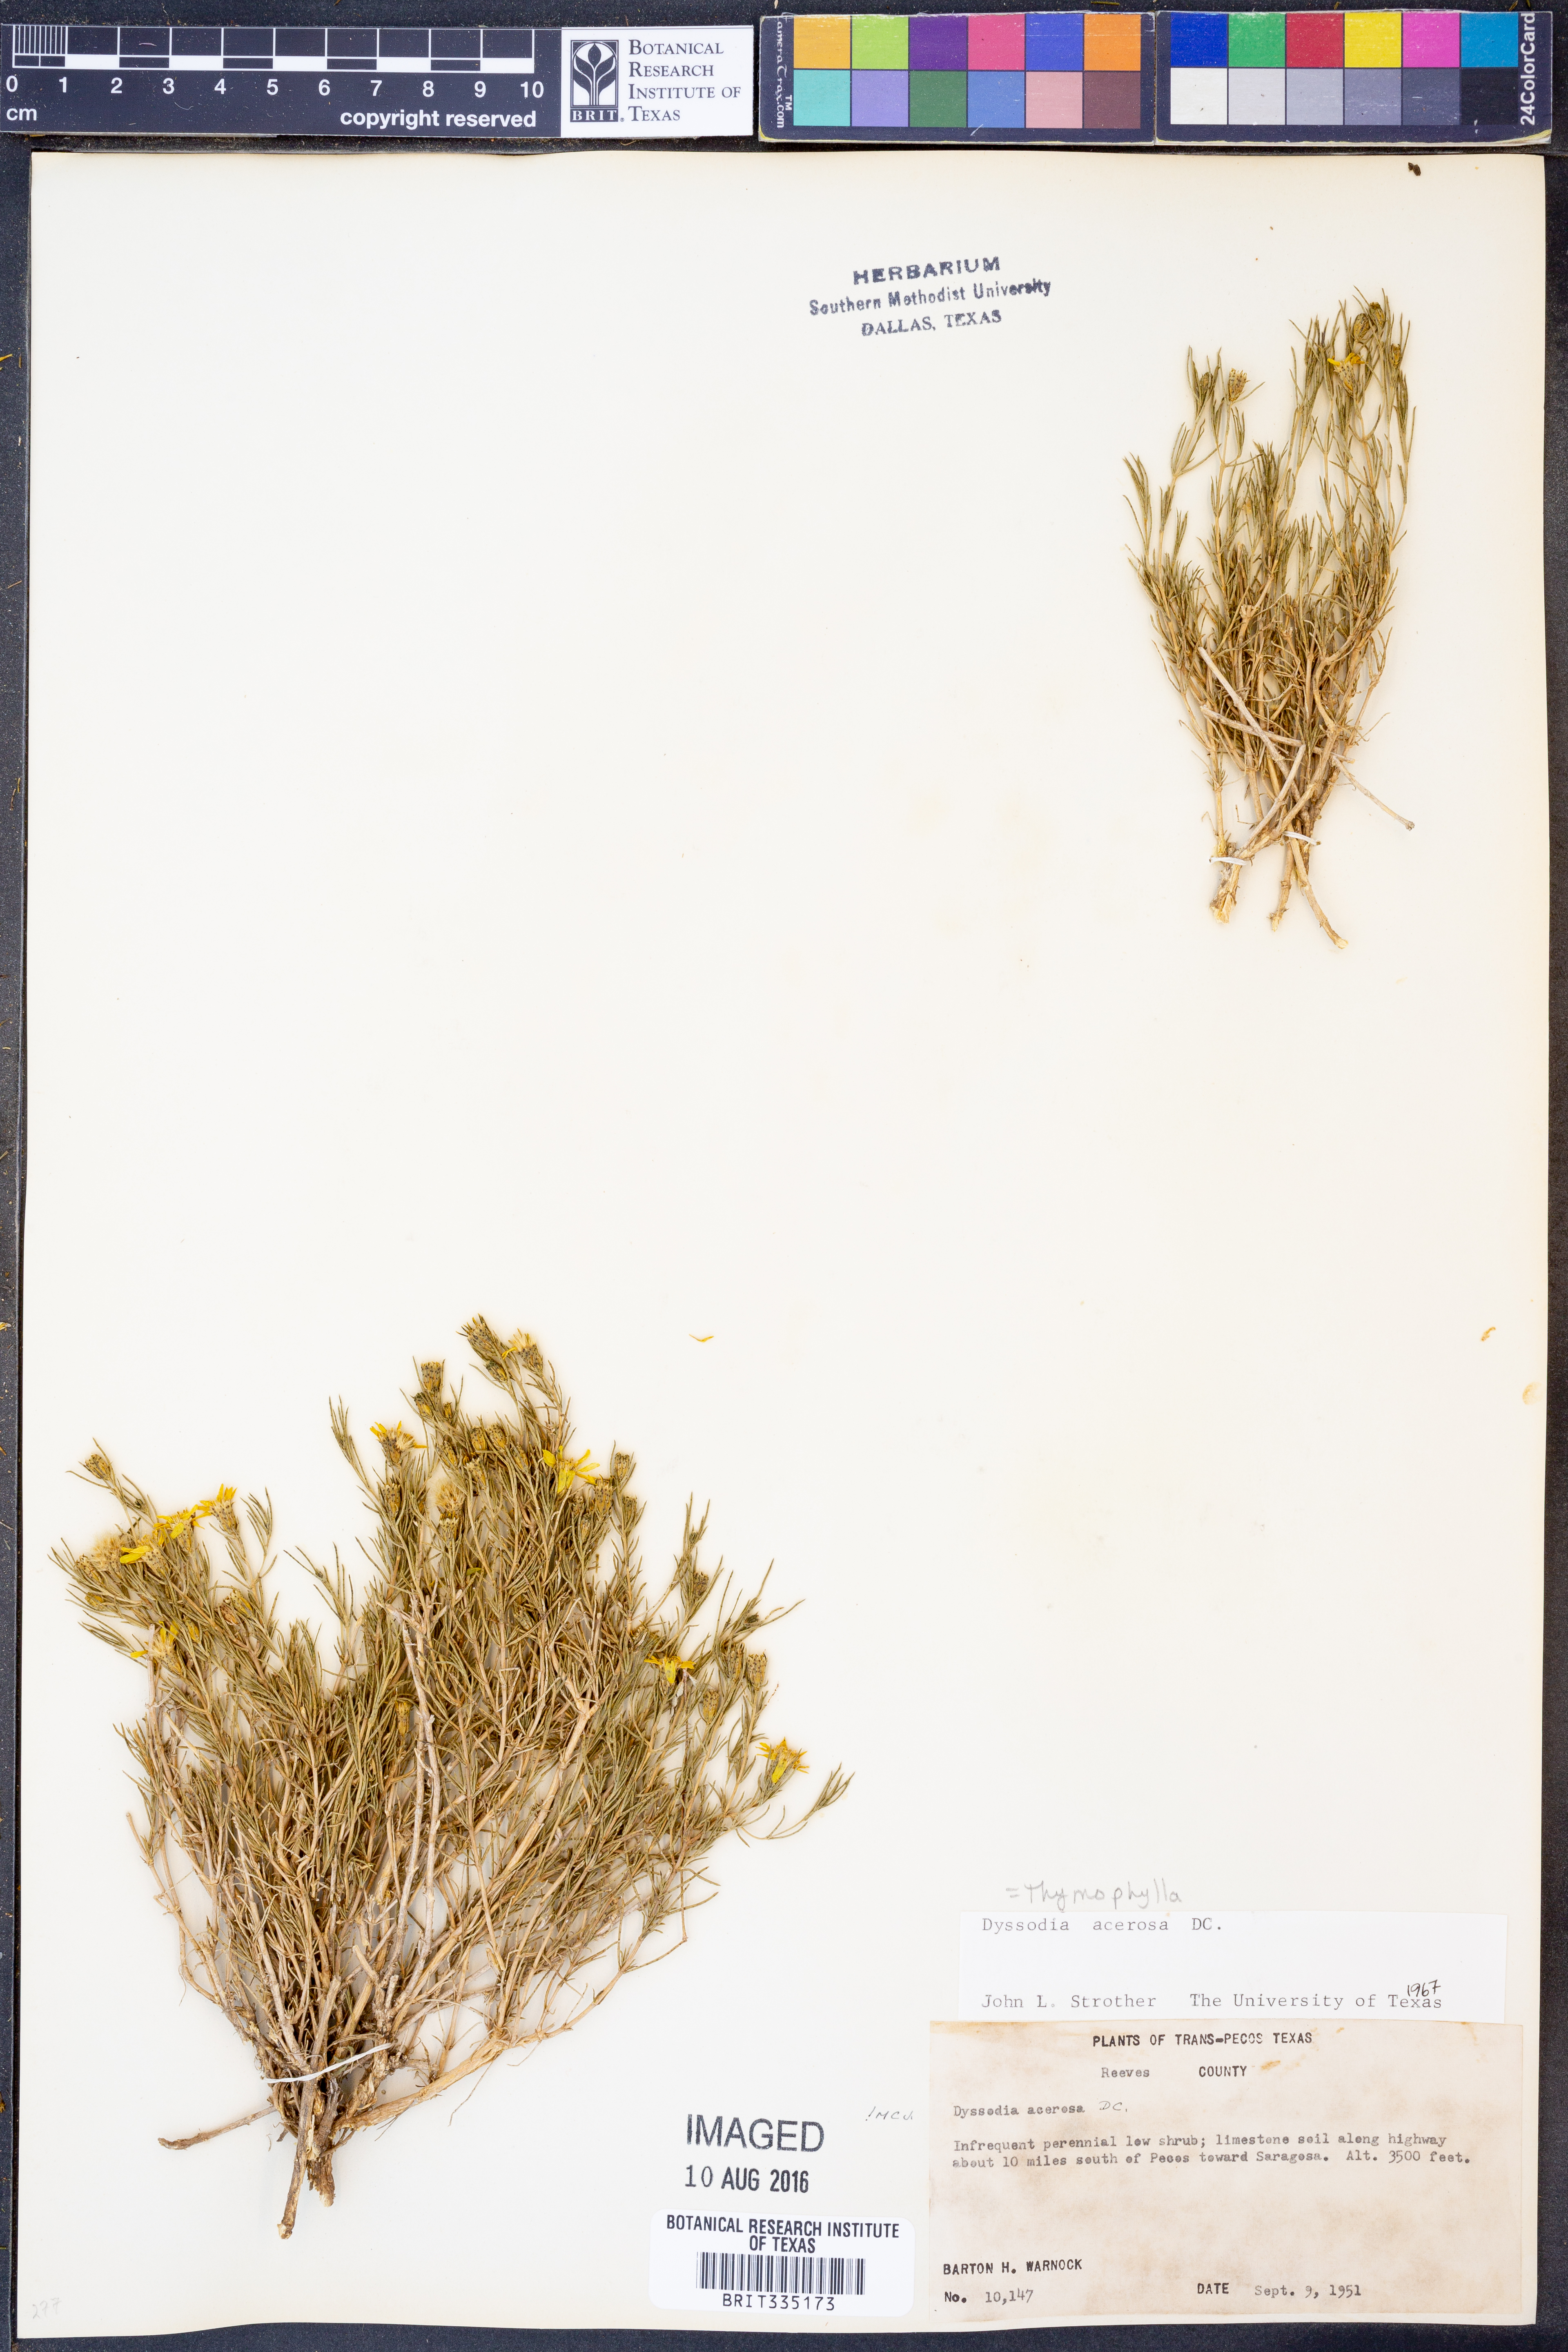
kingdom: Plantae
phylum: Tracheophyta
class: Magnoliopsida
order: Asterales
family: Asteraceae
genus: Thymophylla
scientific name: Thymophylla acerosa
